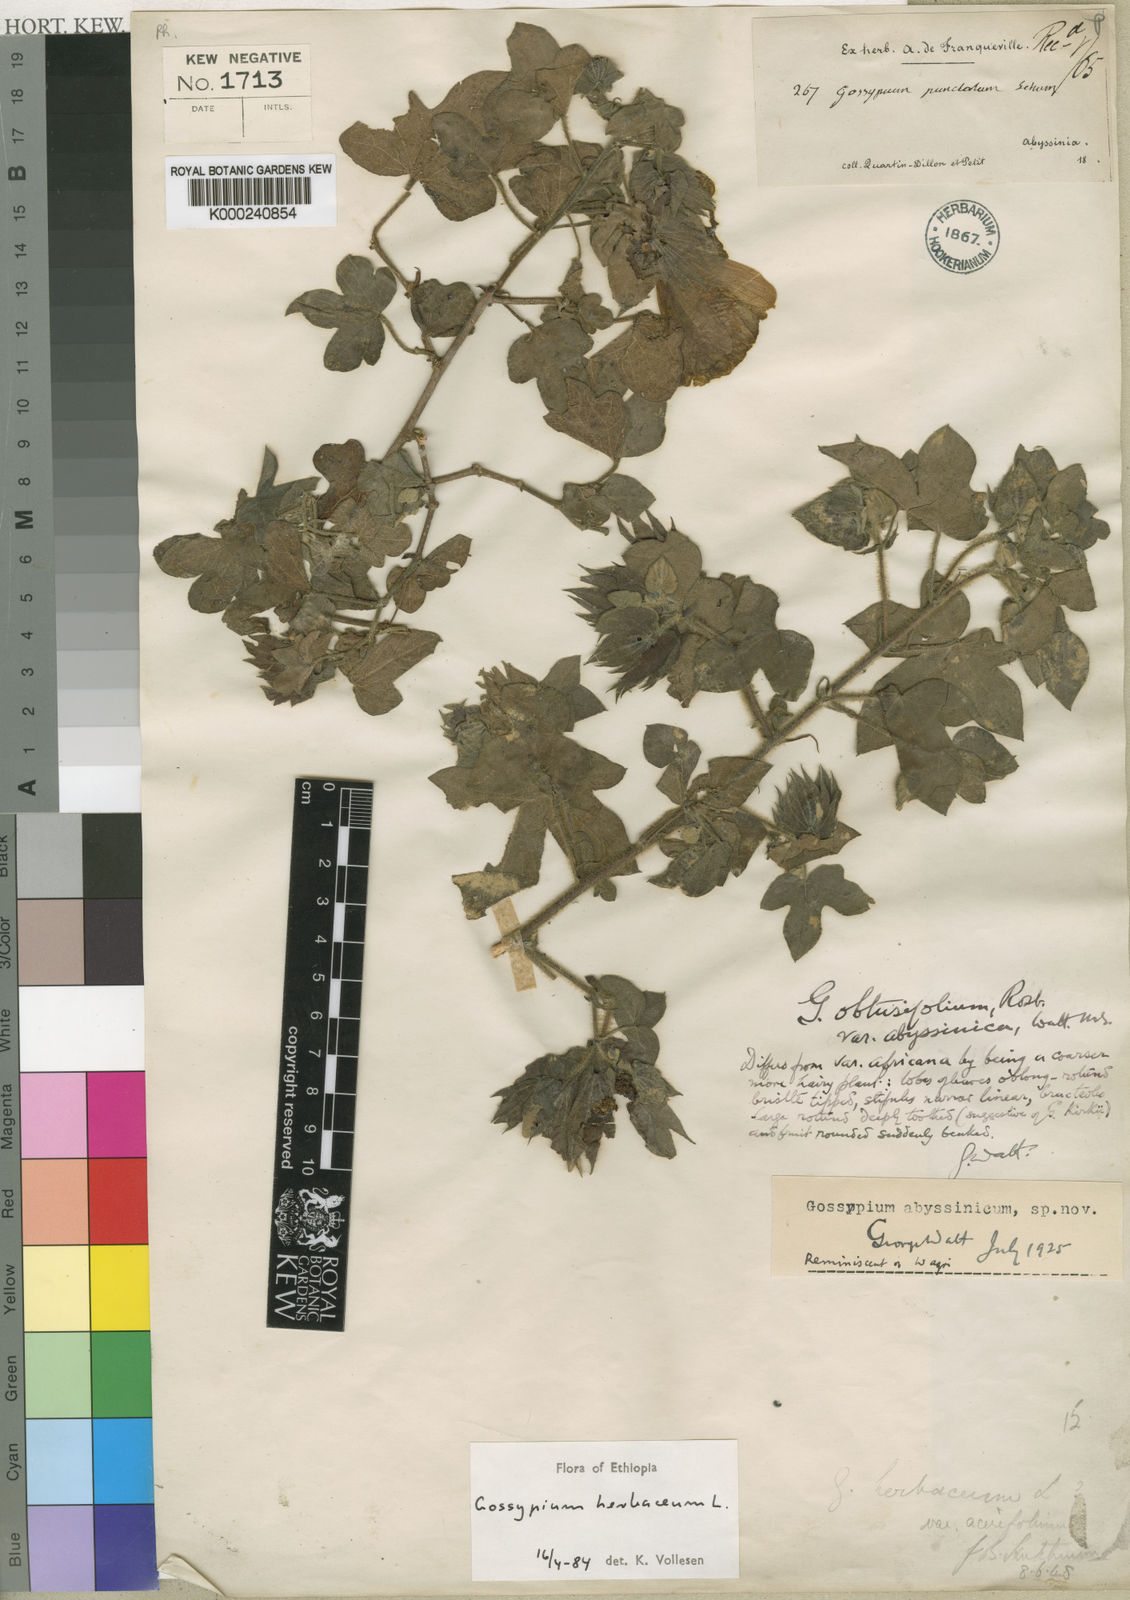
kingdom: Plantae
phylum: Tracheophyta
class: Magnoliopsida
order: Malvales
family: Malvaceae
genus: Gossypium
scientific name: Gossypium herbaceum
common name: Levant cotton
